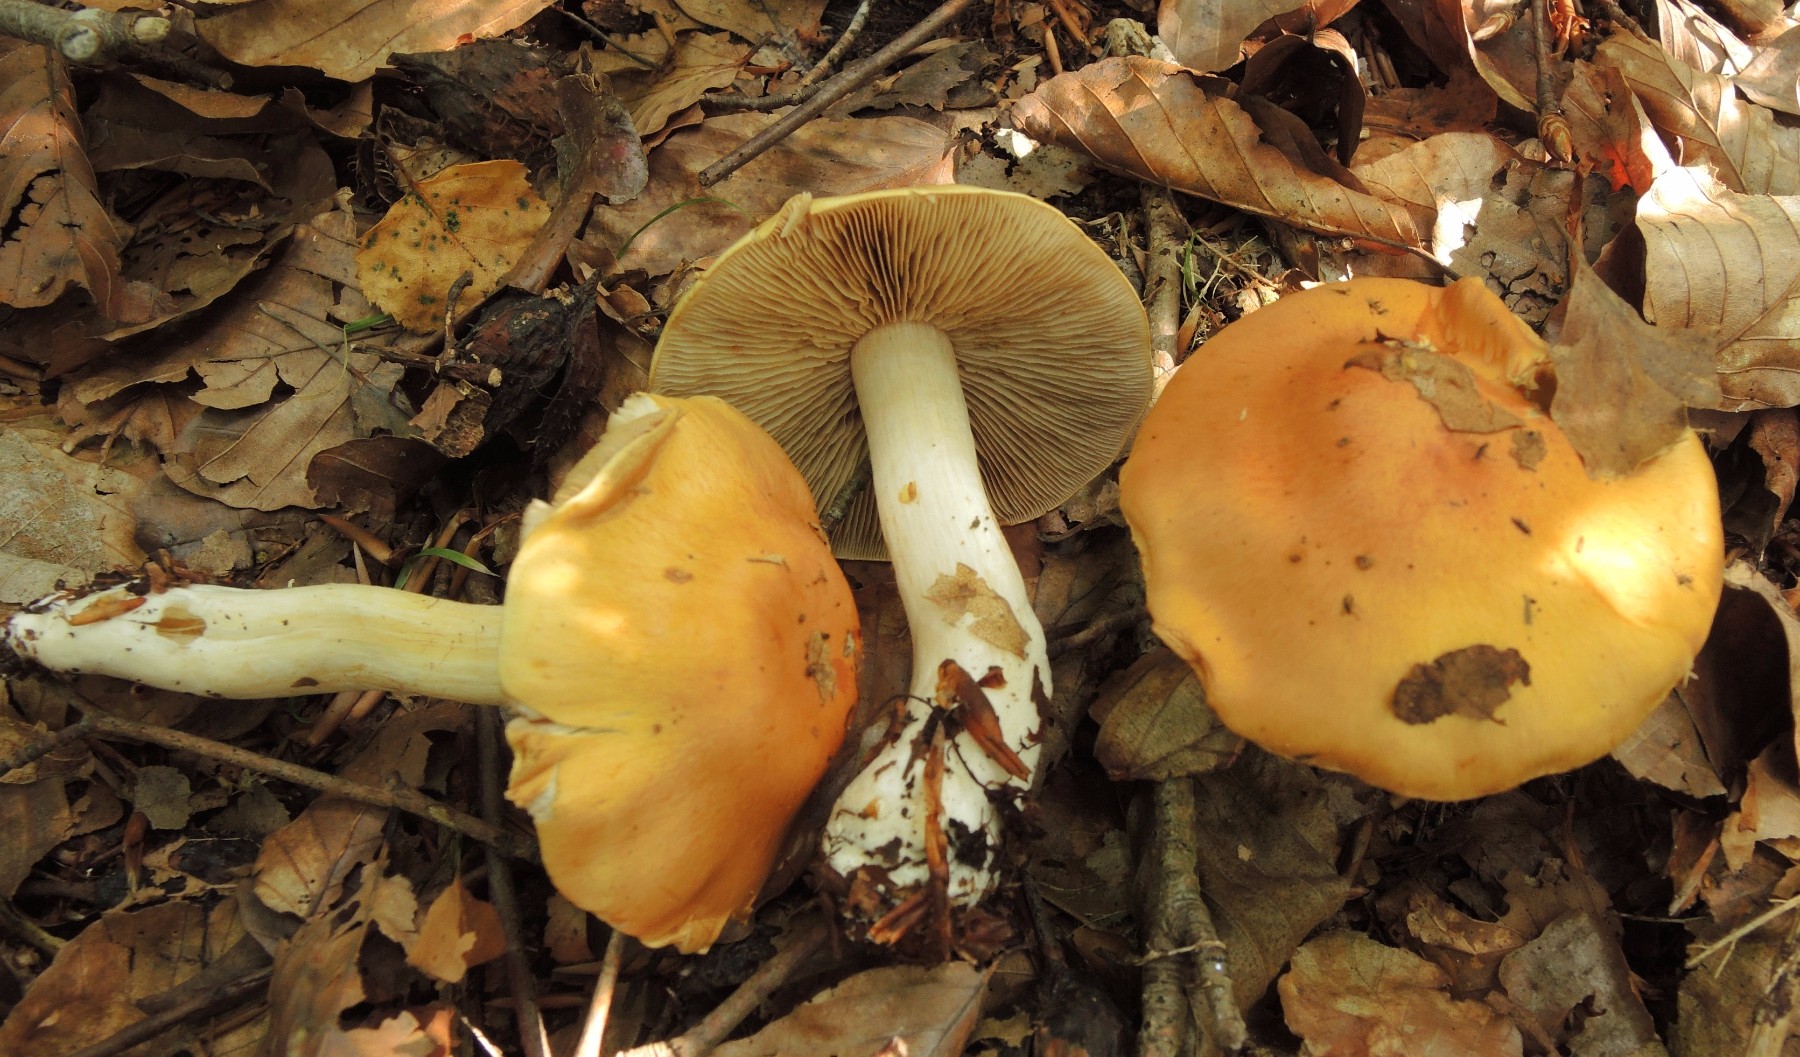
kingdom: Fungi
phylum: Basidiomycota
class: Agaricomycetes
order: Agaricales
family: Cortinariaceae
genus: Thaxterogaster
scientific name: Thaxterogaster emollitus
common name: besk slørhat
